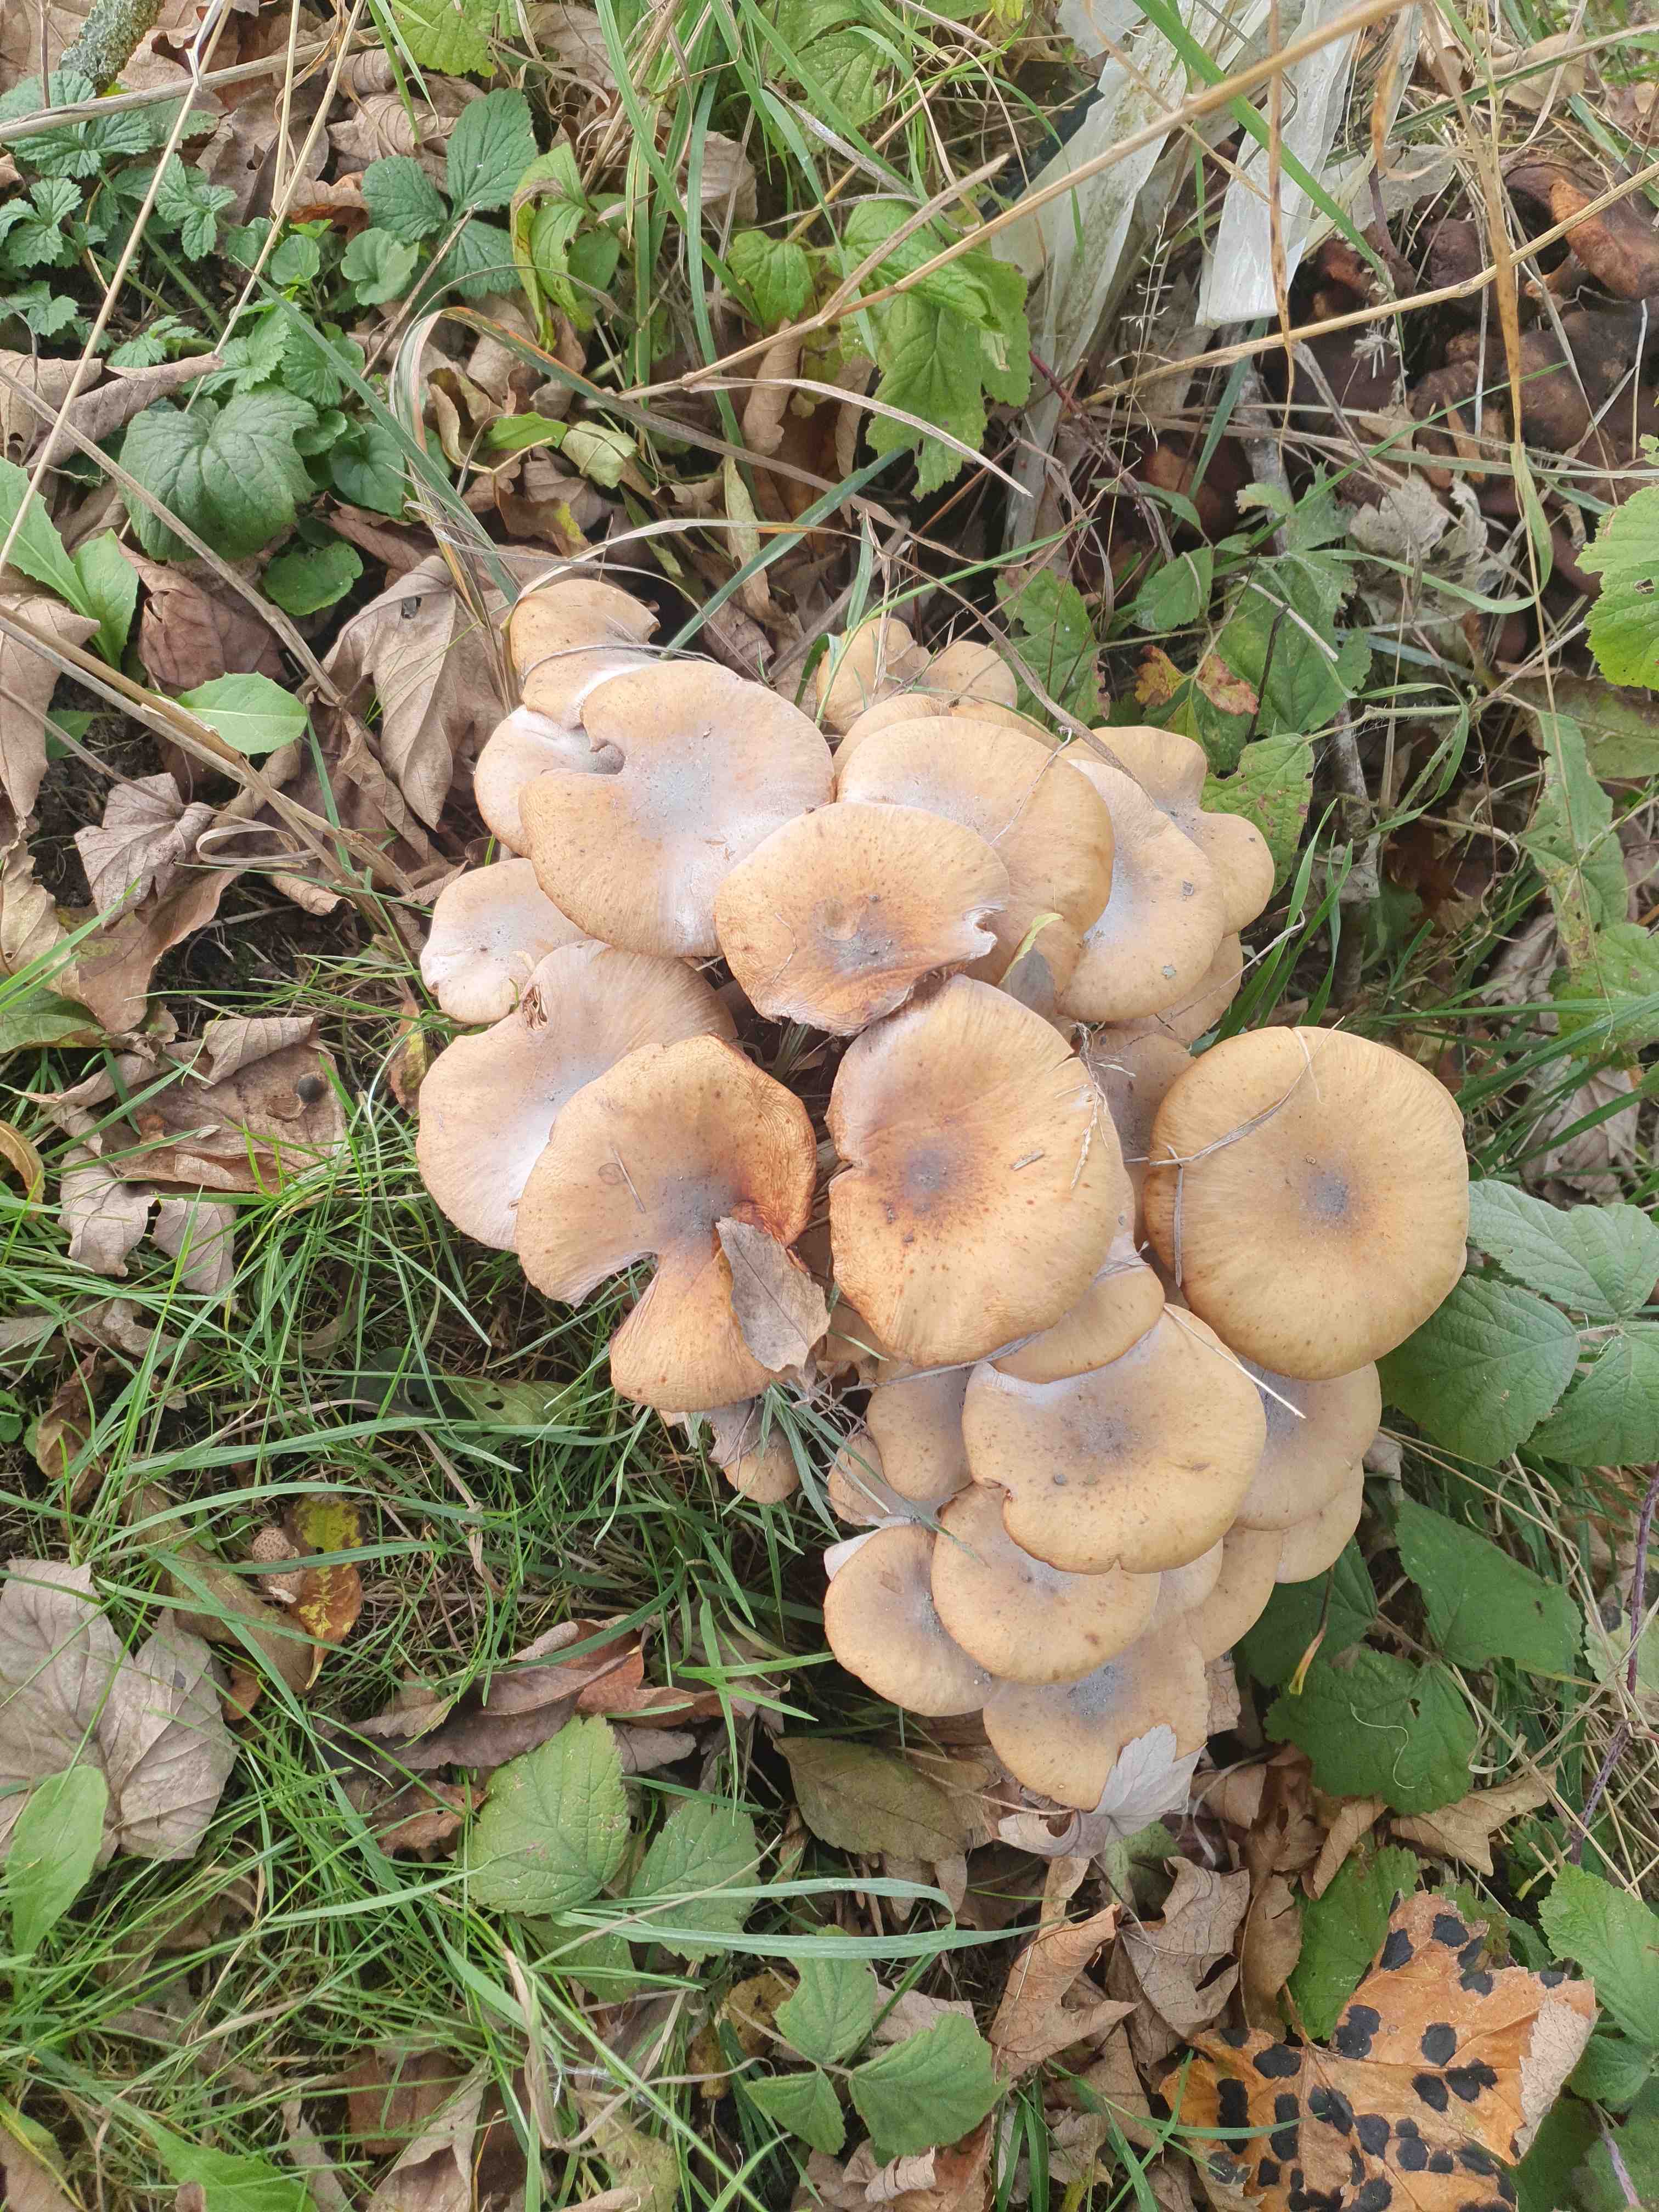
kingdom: Fungi
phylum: Basidiomycota
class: Agaricomycetes
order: Agaricales
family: Physalacriaceae
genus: Armillaria
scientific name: Armillaria mellea
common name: ægte honningsvamp
